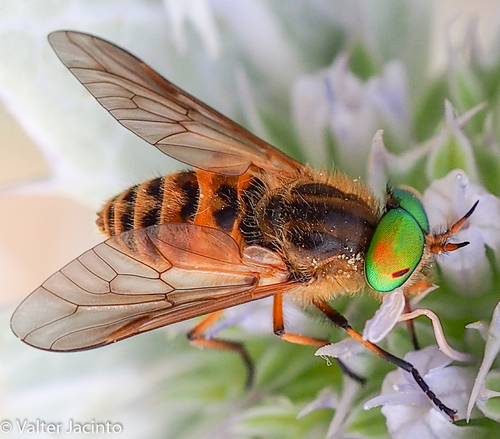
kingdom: Animalia
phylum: Arthropoda
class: Insecta
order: Diptera
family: Tabanidae
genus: Silvius
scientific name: Silvius variegatus
